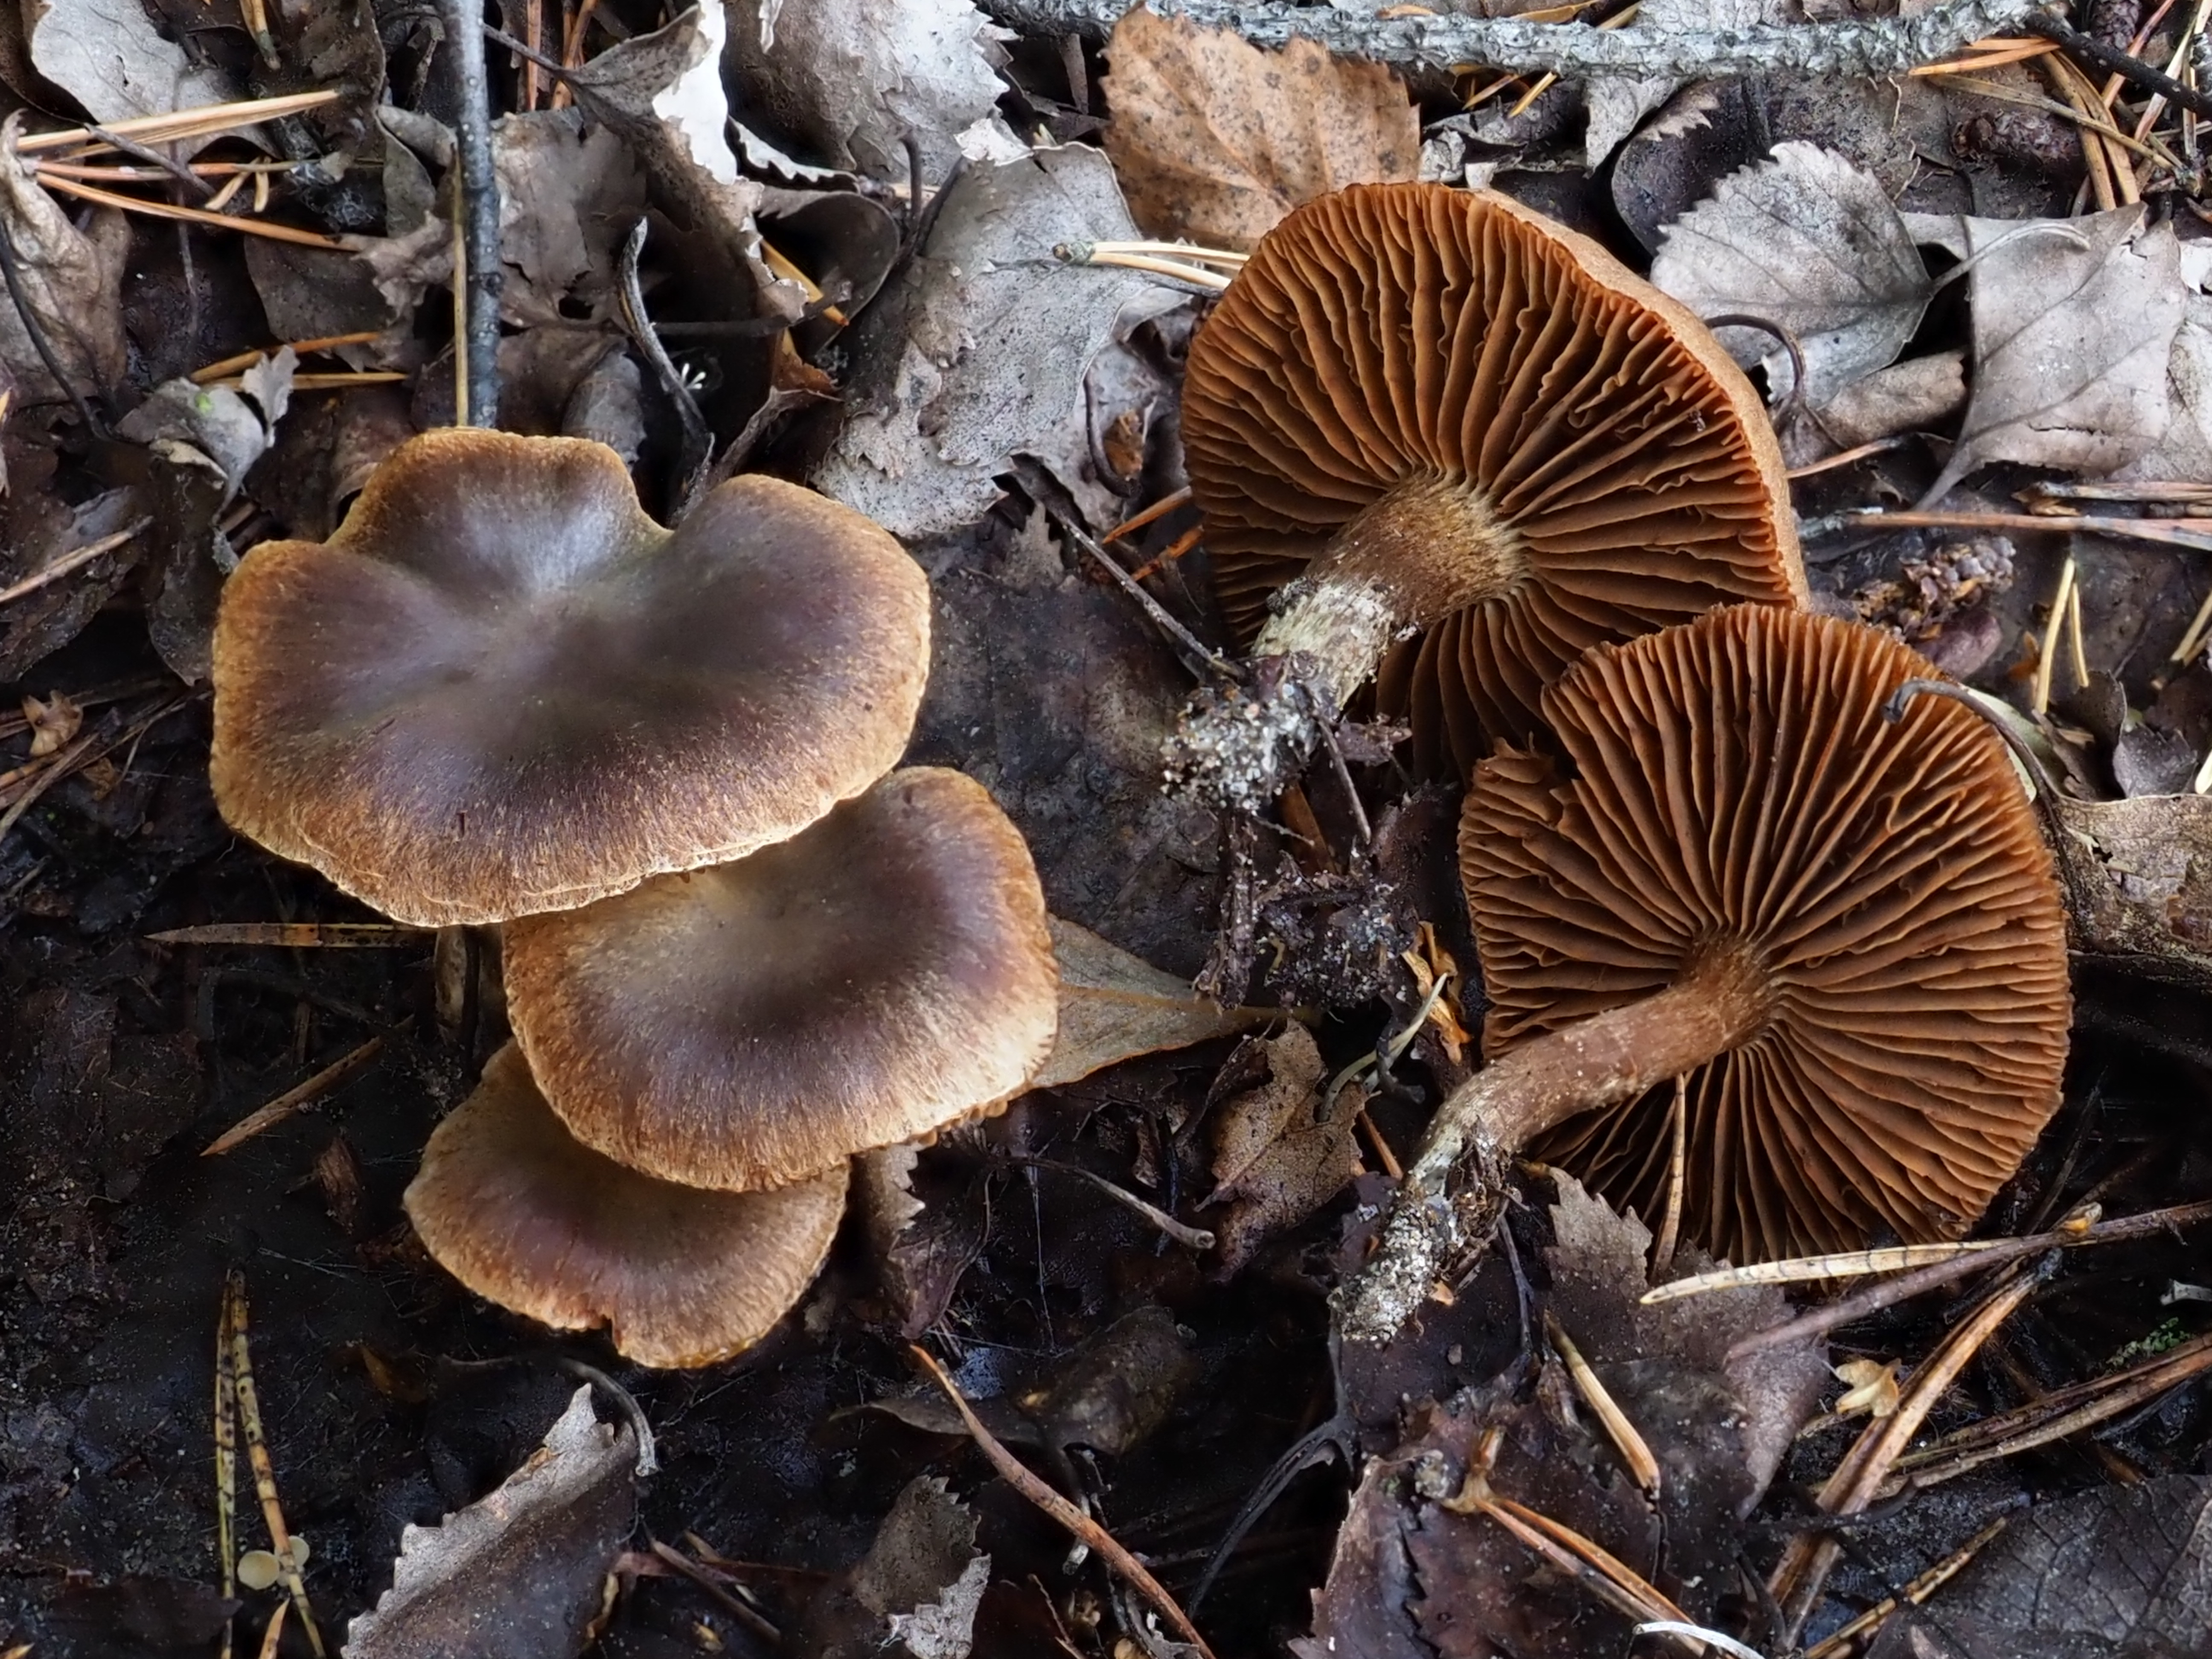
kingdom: Fungi
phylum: Basidiomycota
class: Agaricomycetes
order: Agaricales
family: Cortinariaceae
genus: Cortinarius
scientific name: Cortinarius
